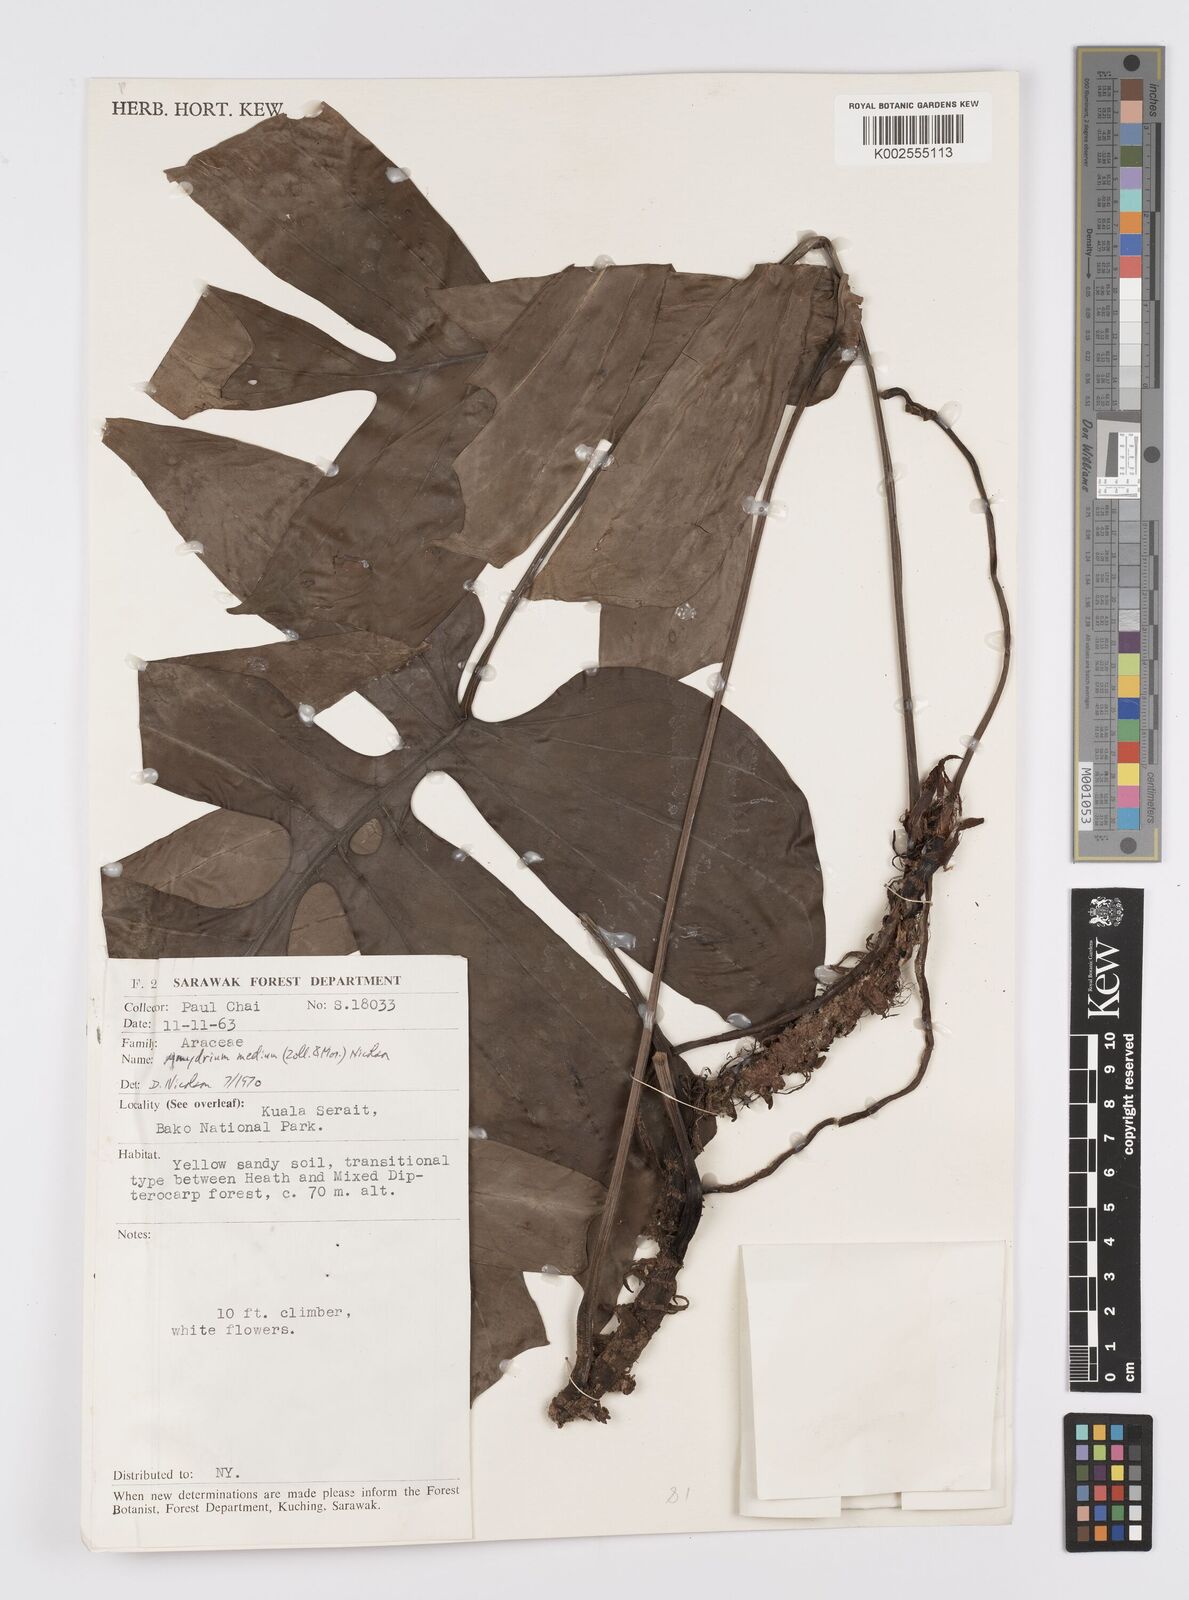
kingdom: Plantae
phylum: Tracheophyta
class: Liliopsida
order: Alismatales
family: Araceae
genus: Amydrium
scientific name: Amydrium medium
